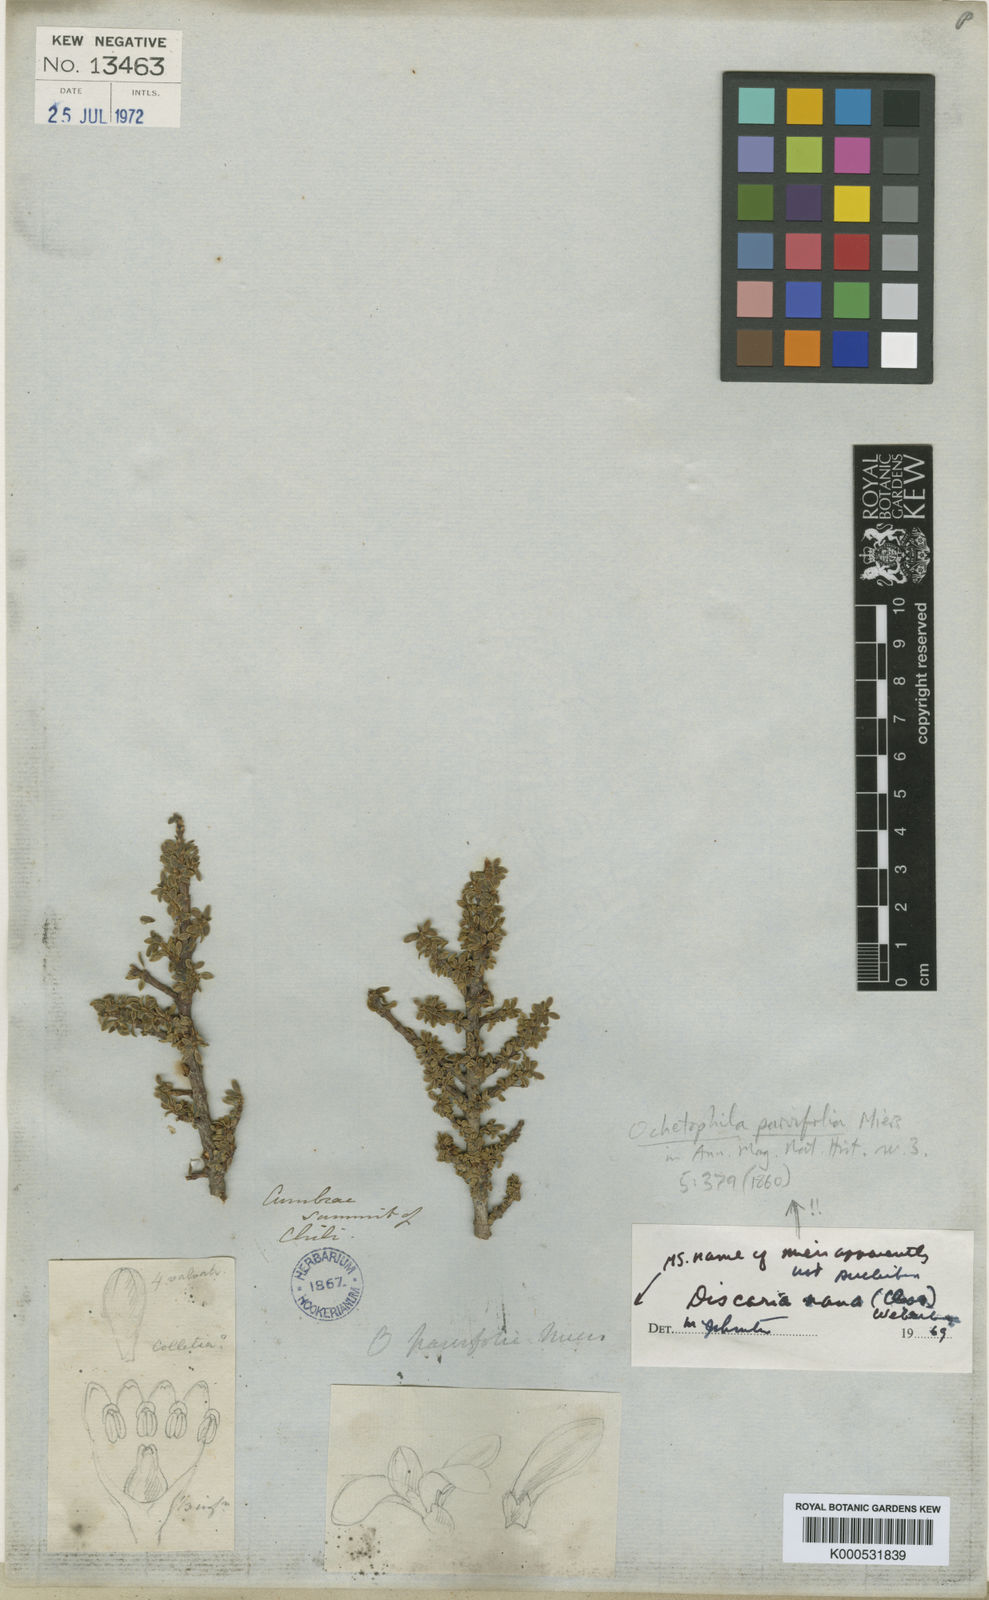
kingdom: Plantae
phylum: Tracheophyta
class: Magnoliopsida
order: Rosales
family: Rhamnaceae
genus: Discaria
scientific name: Discaria nana
